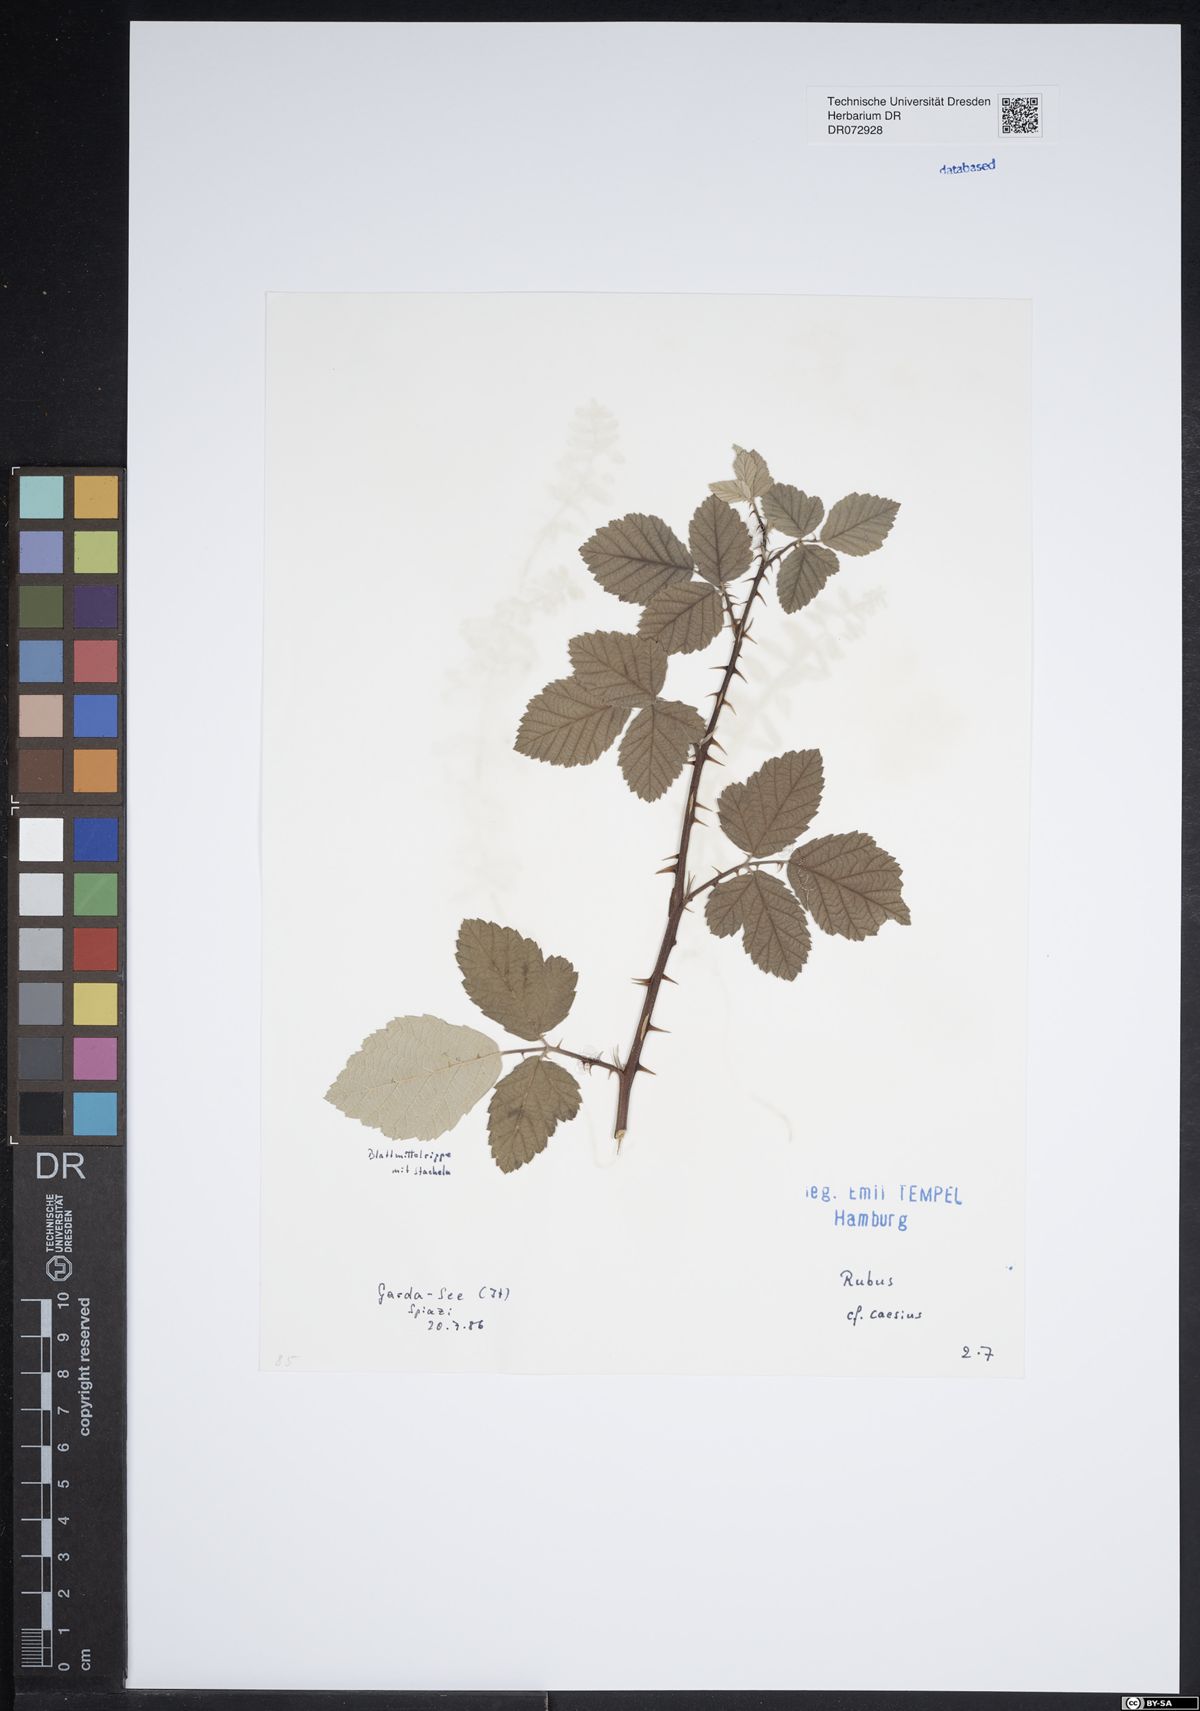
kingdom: Plantae
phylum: Tracheophyta
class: Magnoliopsida
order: Rosales
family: Rosaceae
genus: Rubus
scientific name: Rubus caesius
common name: Dewberry
